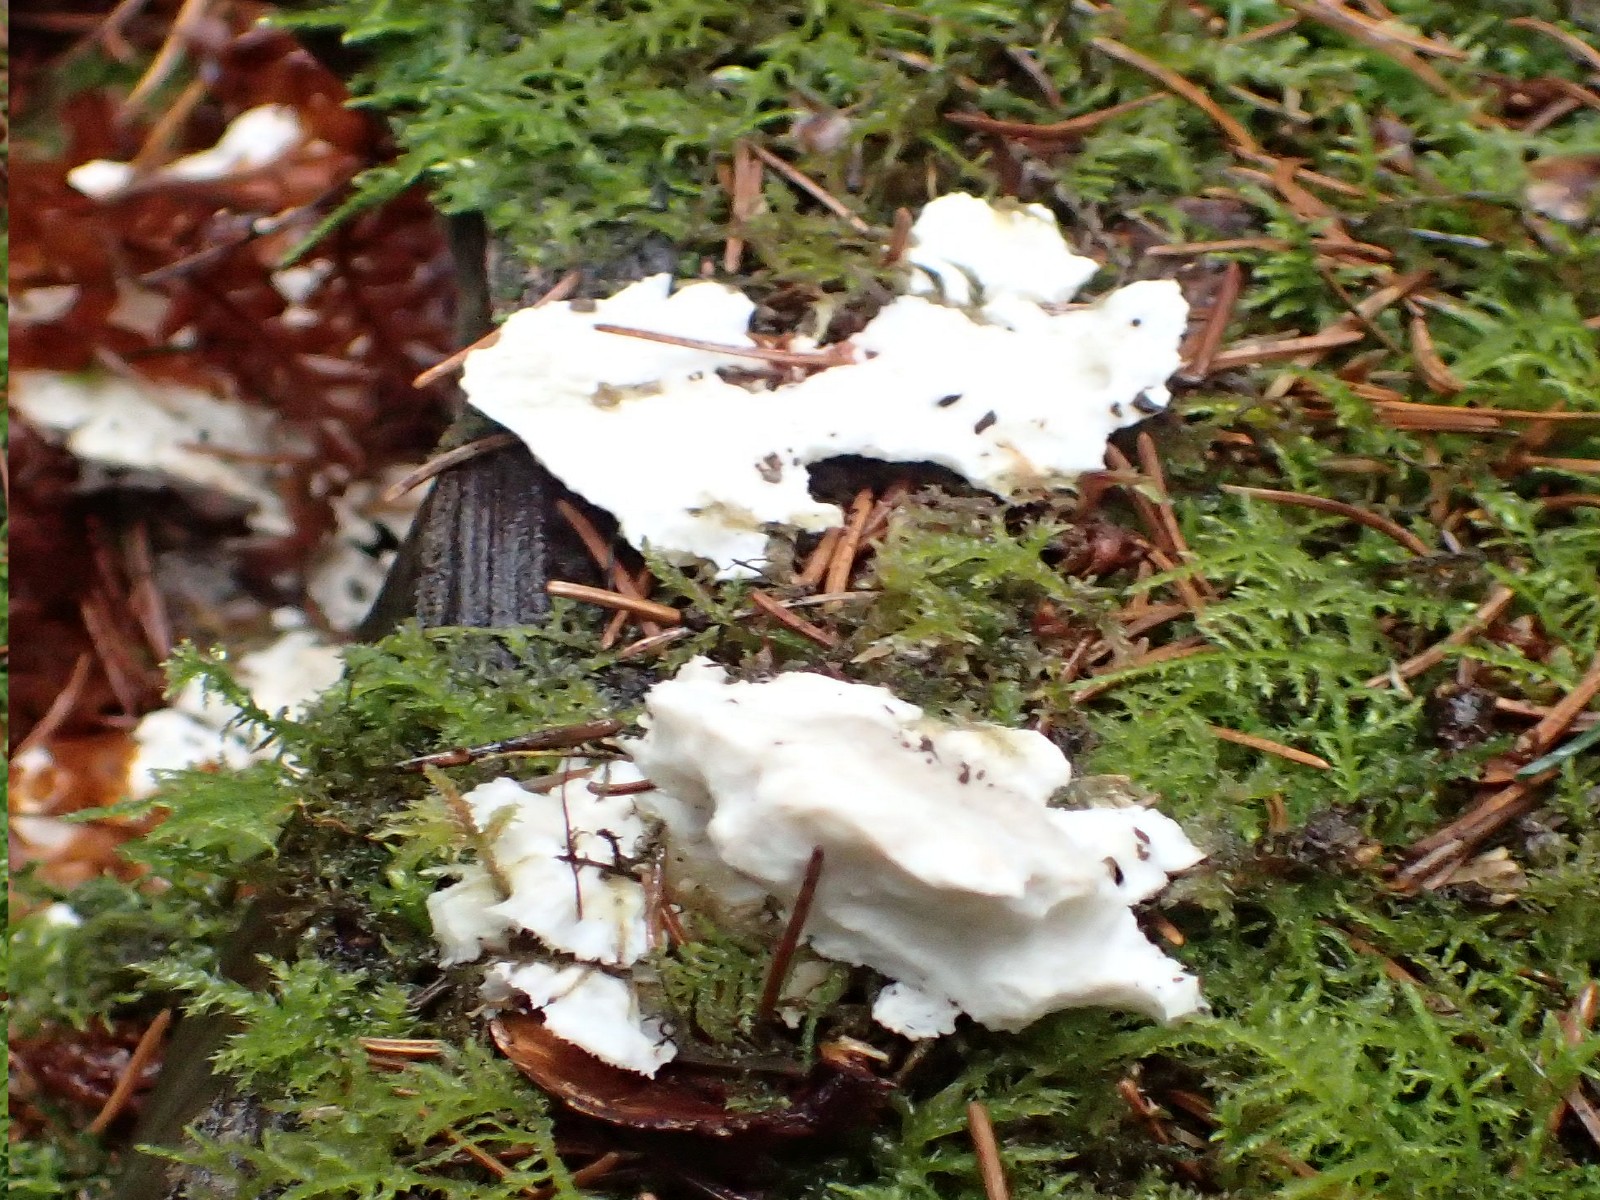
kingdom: Fungi
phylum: Basidiomycota
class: Agaricomycetes
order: Polyporales
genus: Amaropostia
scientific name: Amaropostia stiptica
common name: bitter kødporesvamp
